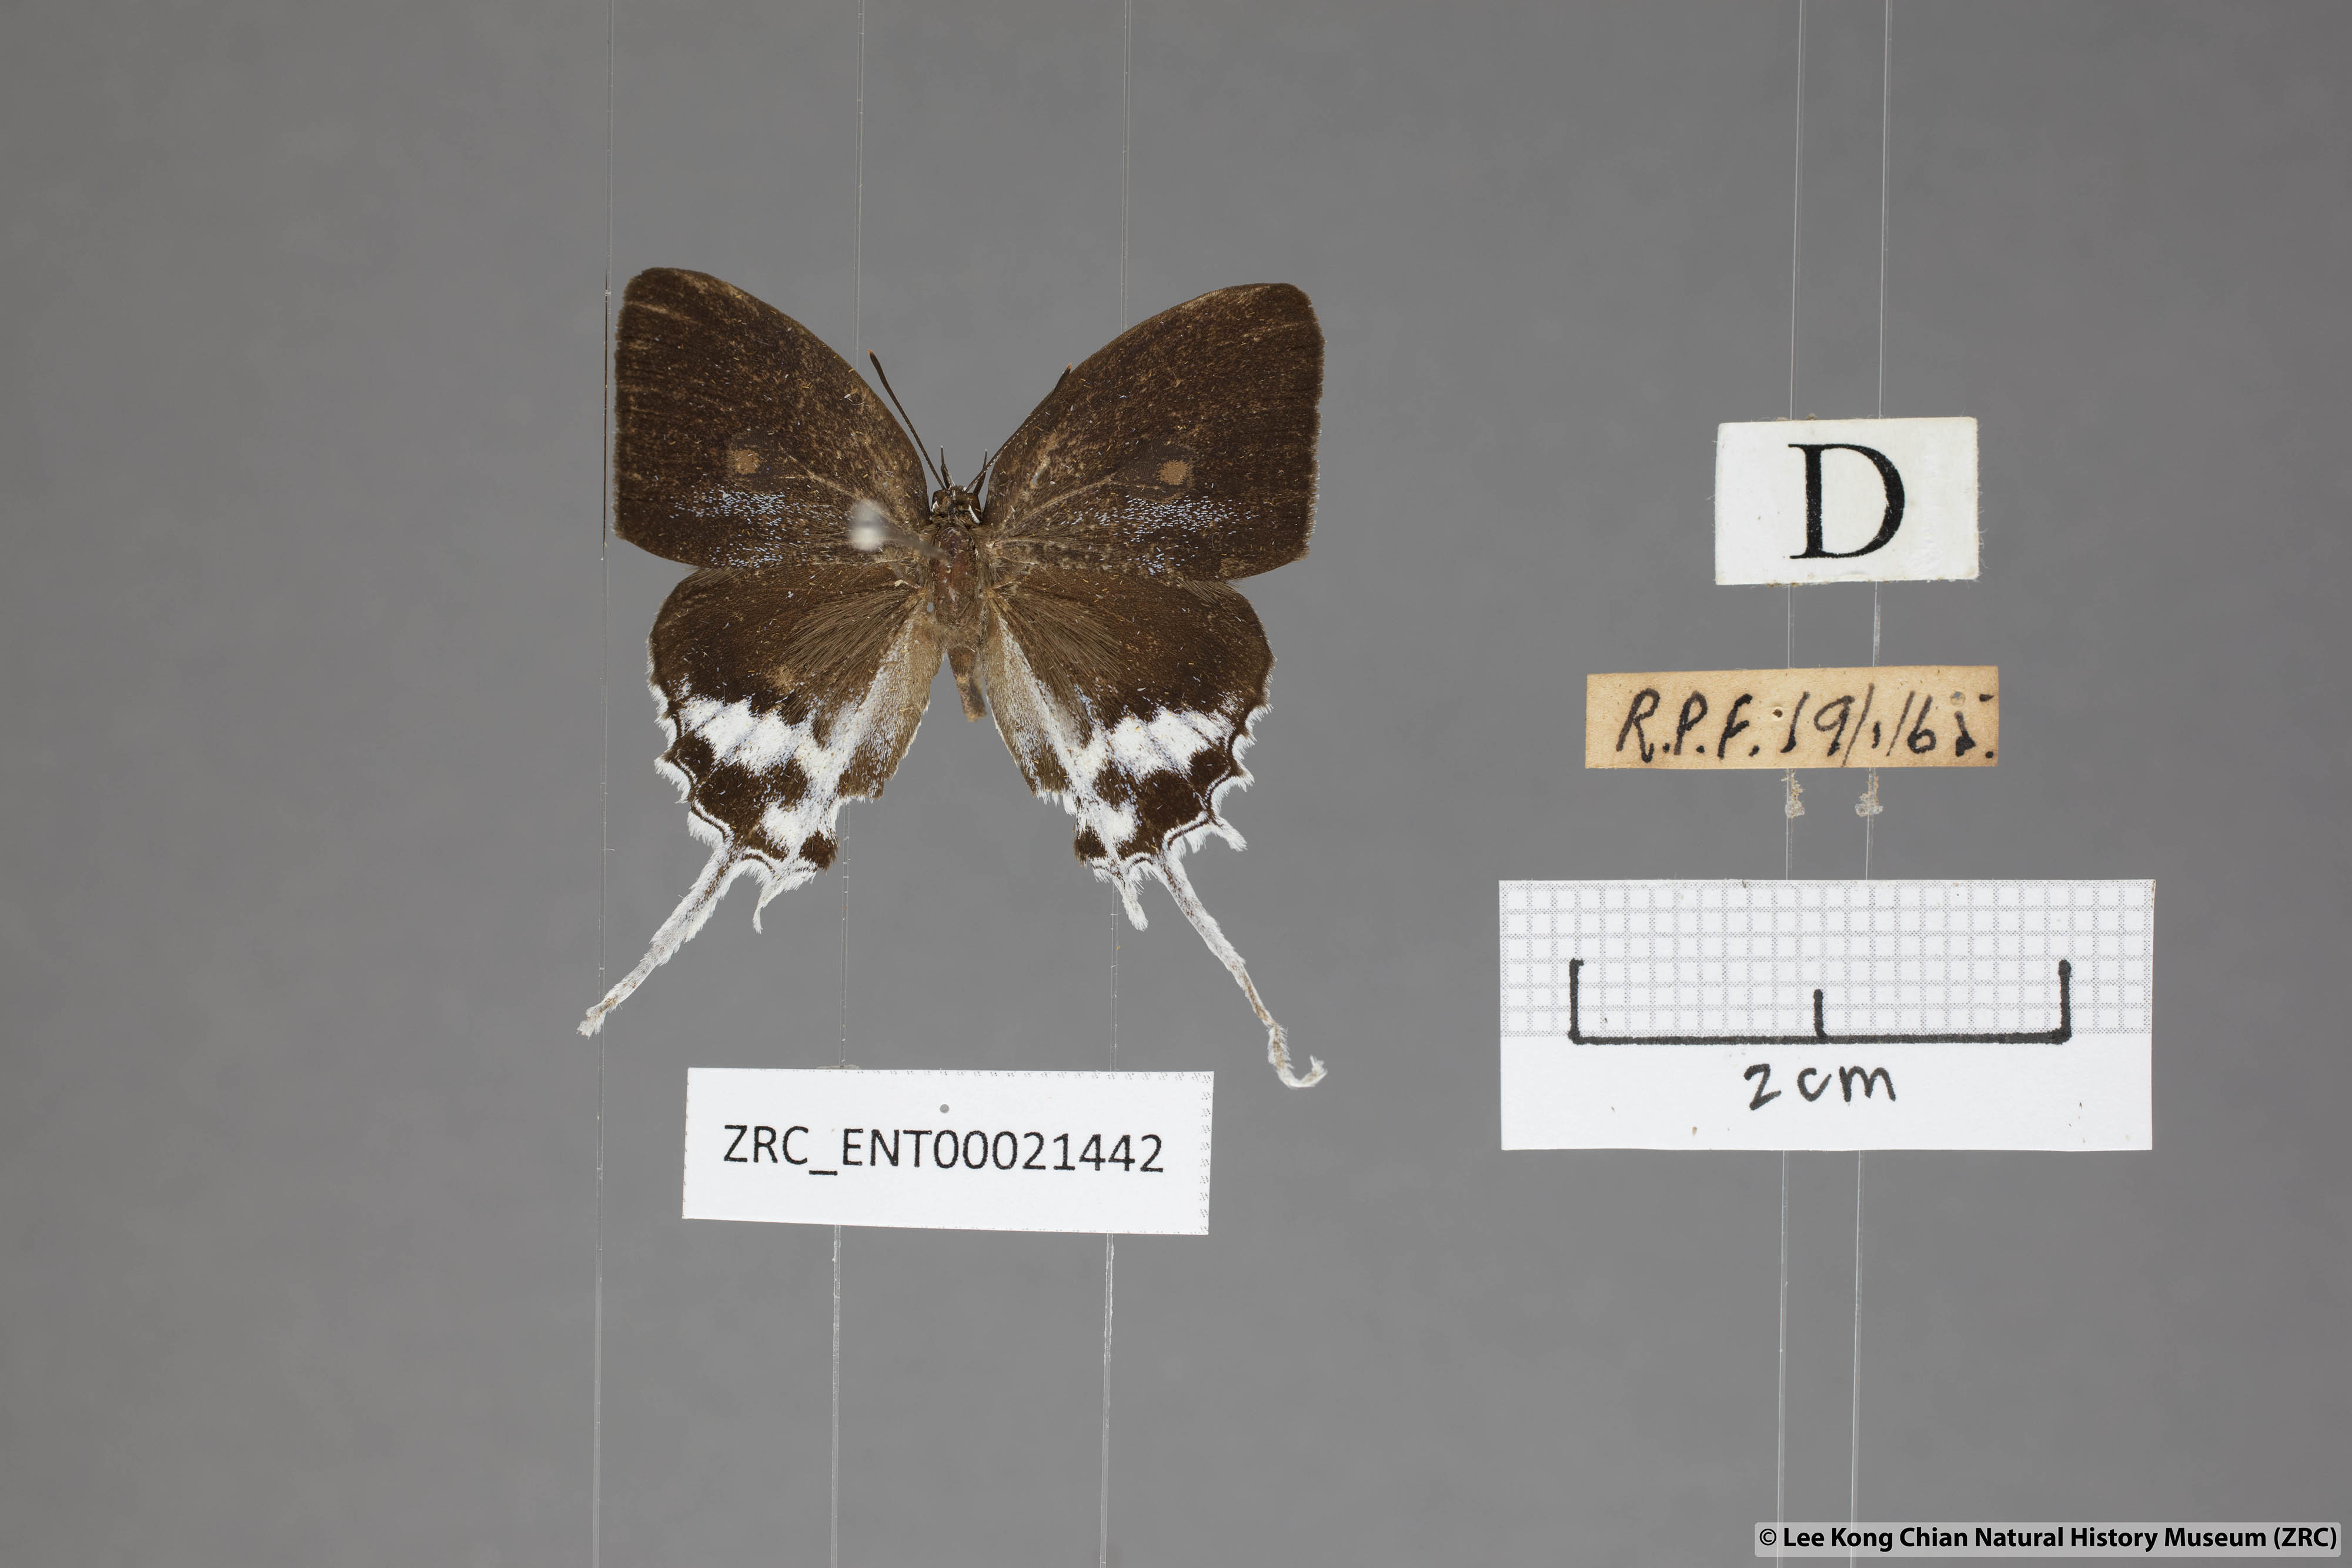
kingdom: Animalia
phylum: Arthropoda
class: Insecta
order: Lepidoptera
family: Lycaenidae
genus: Eooxylides
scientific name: Eooxylides tharis
